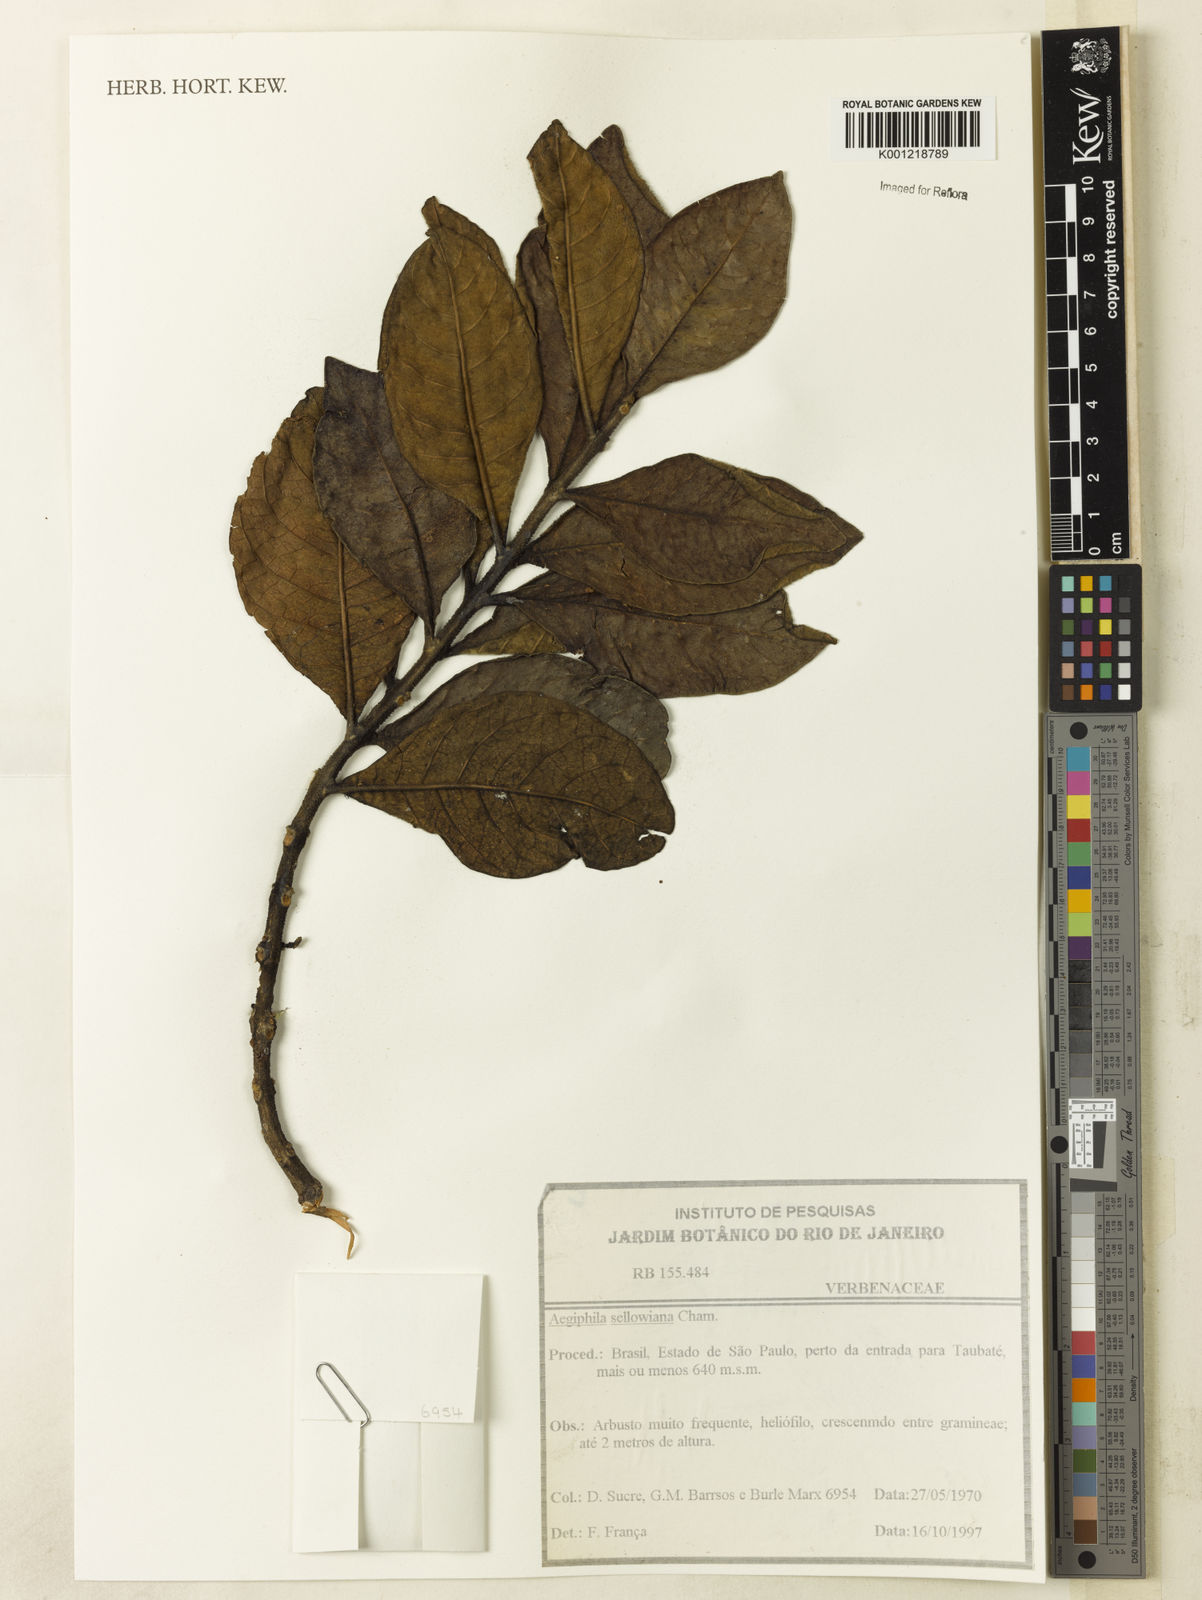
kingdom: Plantae
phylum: Tracheophyta
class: Magnoliopsida
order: Lamiales
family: Lamiaceae
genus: Aegiphila
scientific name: Aegiphila verticillata
